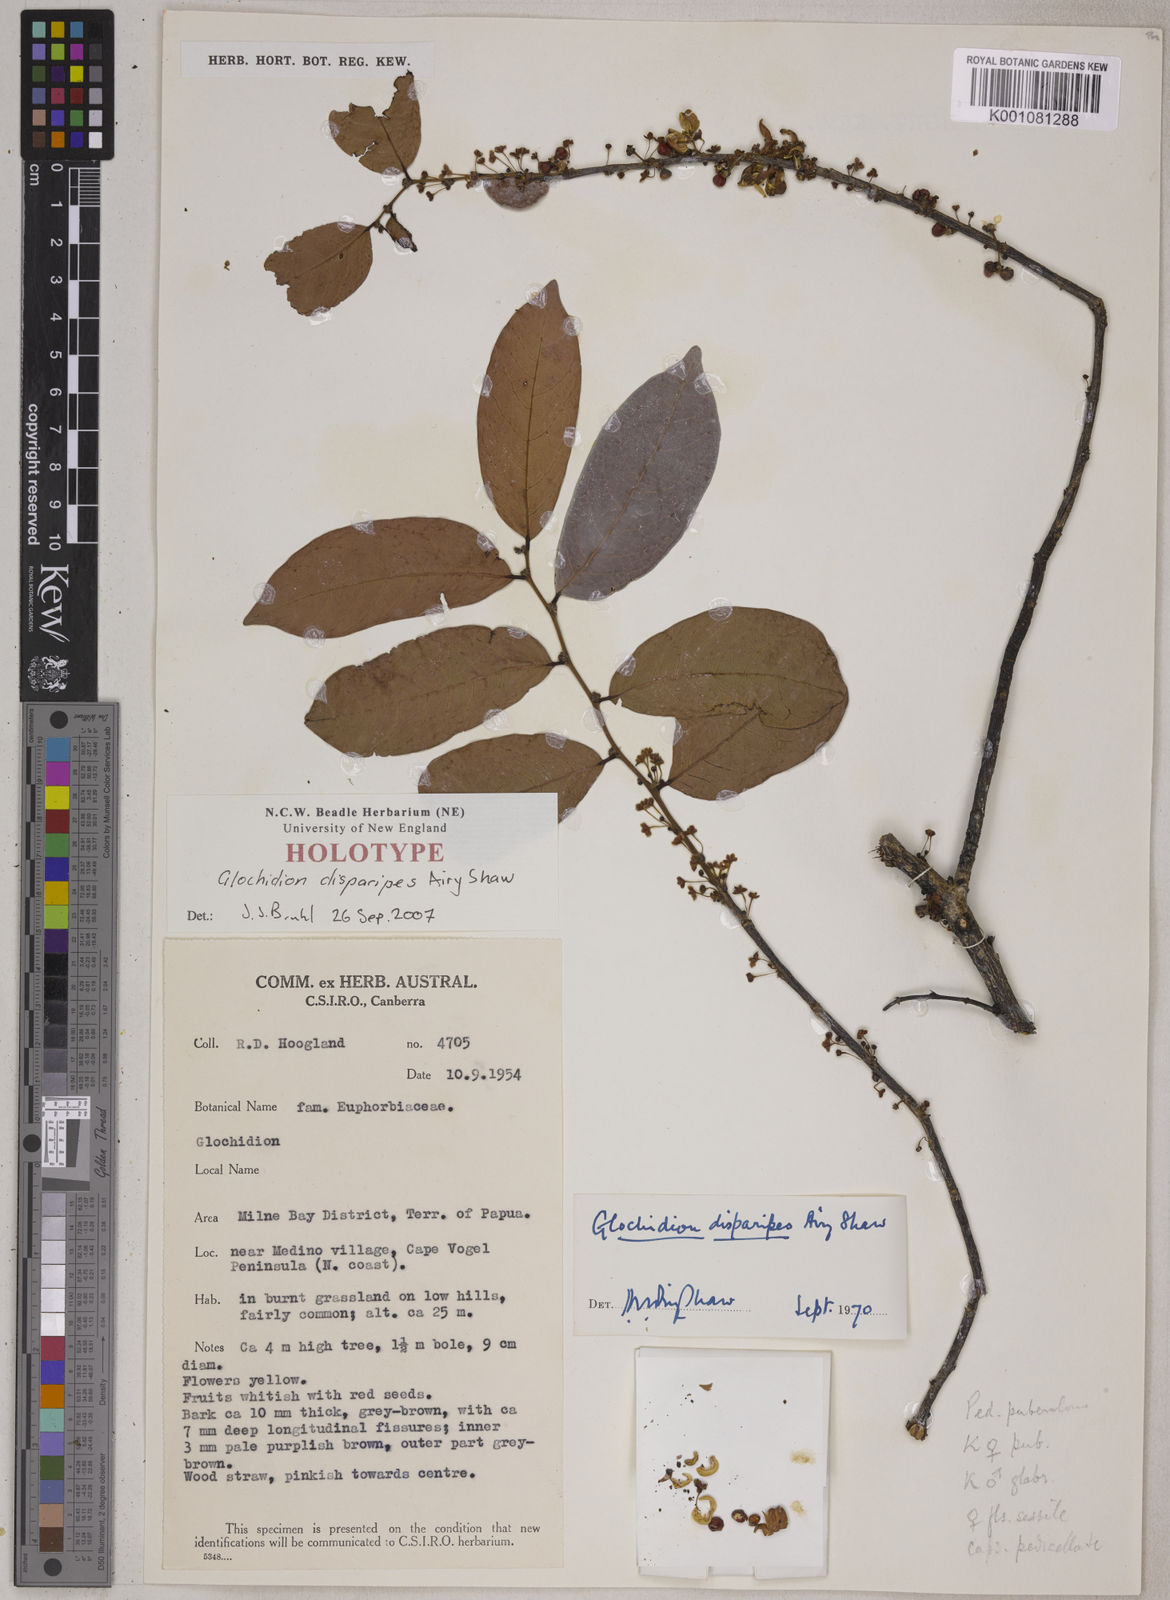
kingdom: Plantae
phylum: Tracheophyta
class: Magnoliopsida
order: Malpighiales
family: Phyllanthaceae
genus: Glochidion
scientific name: Glochidion disparipes
